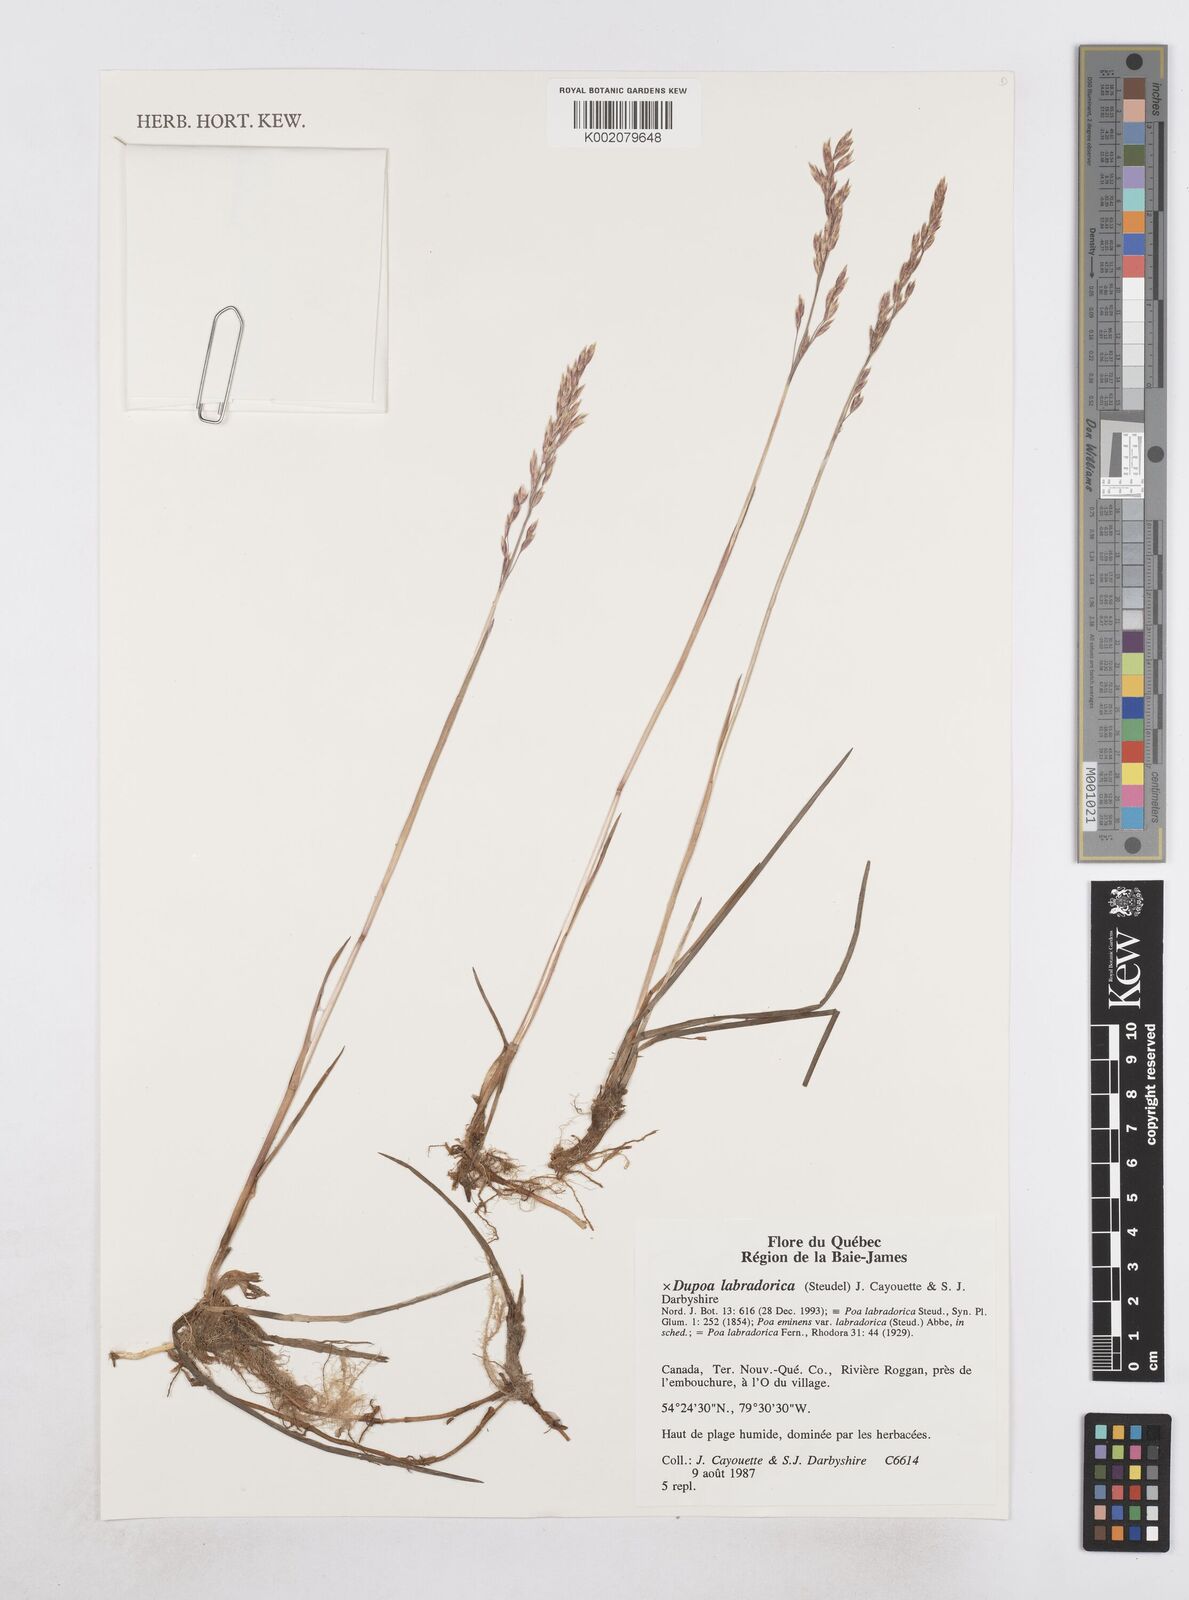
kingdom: Plantae
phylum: Tracheophyta
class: Liliopsida
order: Poales
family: Poaceae
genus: Dupontia
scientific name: Dupontia
